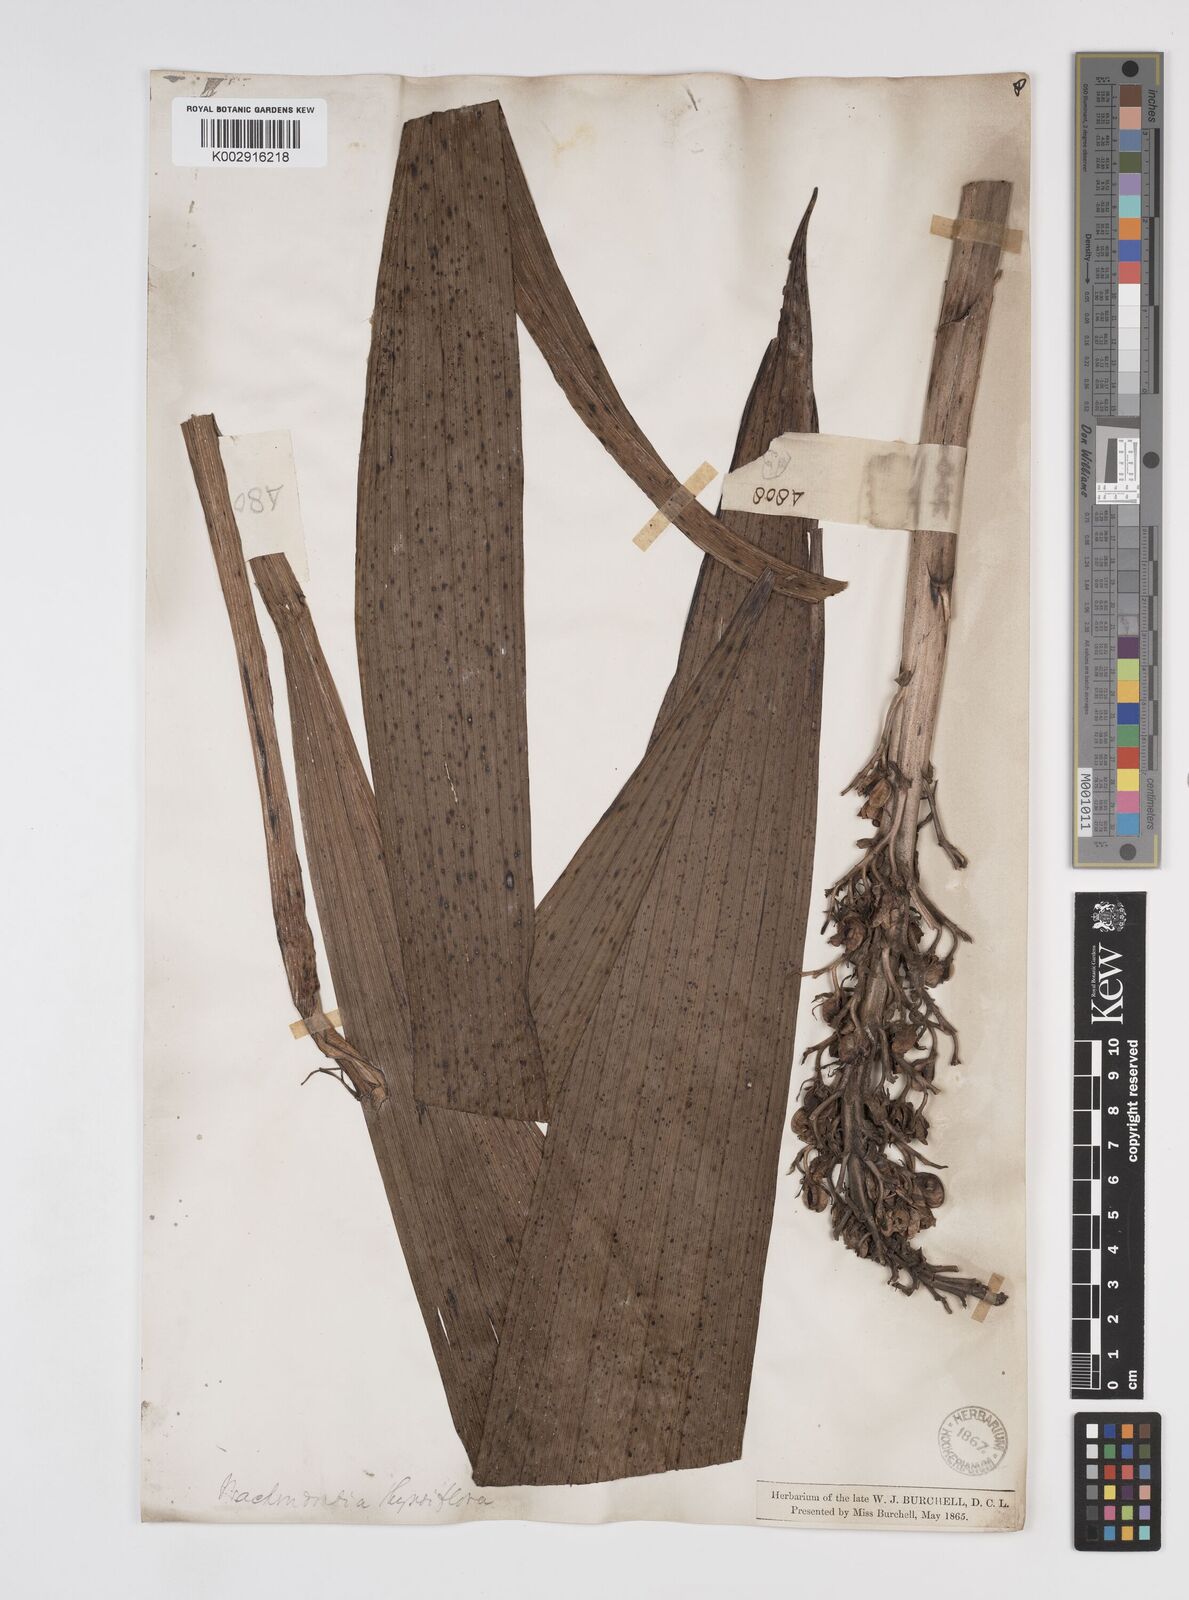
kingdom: Plantae
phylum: Tracheophyta
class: Liliopsida
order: Commelinales
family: Haemodoraceae
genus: Wachendorfia
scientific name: Wachendorfia thyrsiflora
